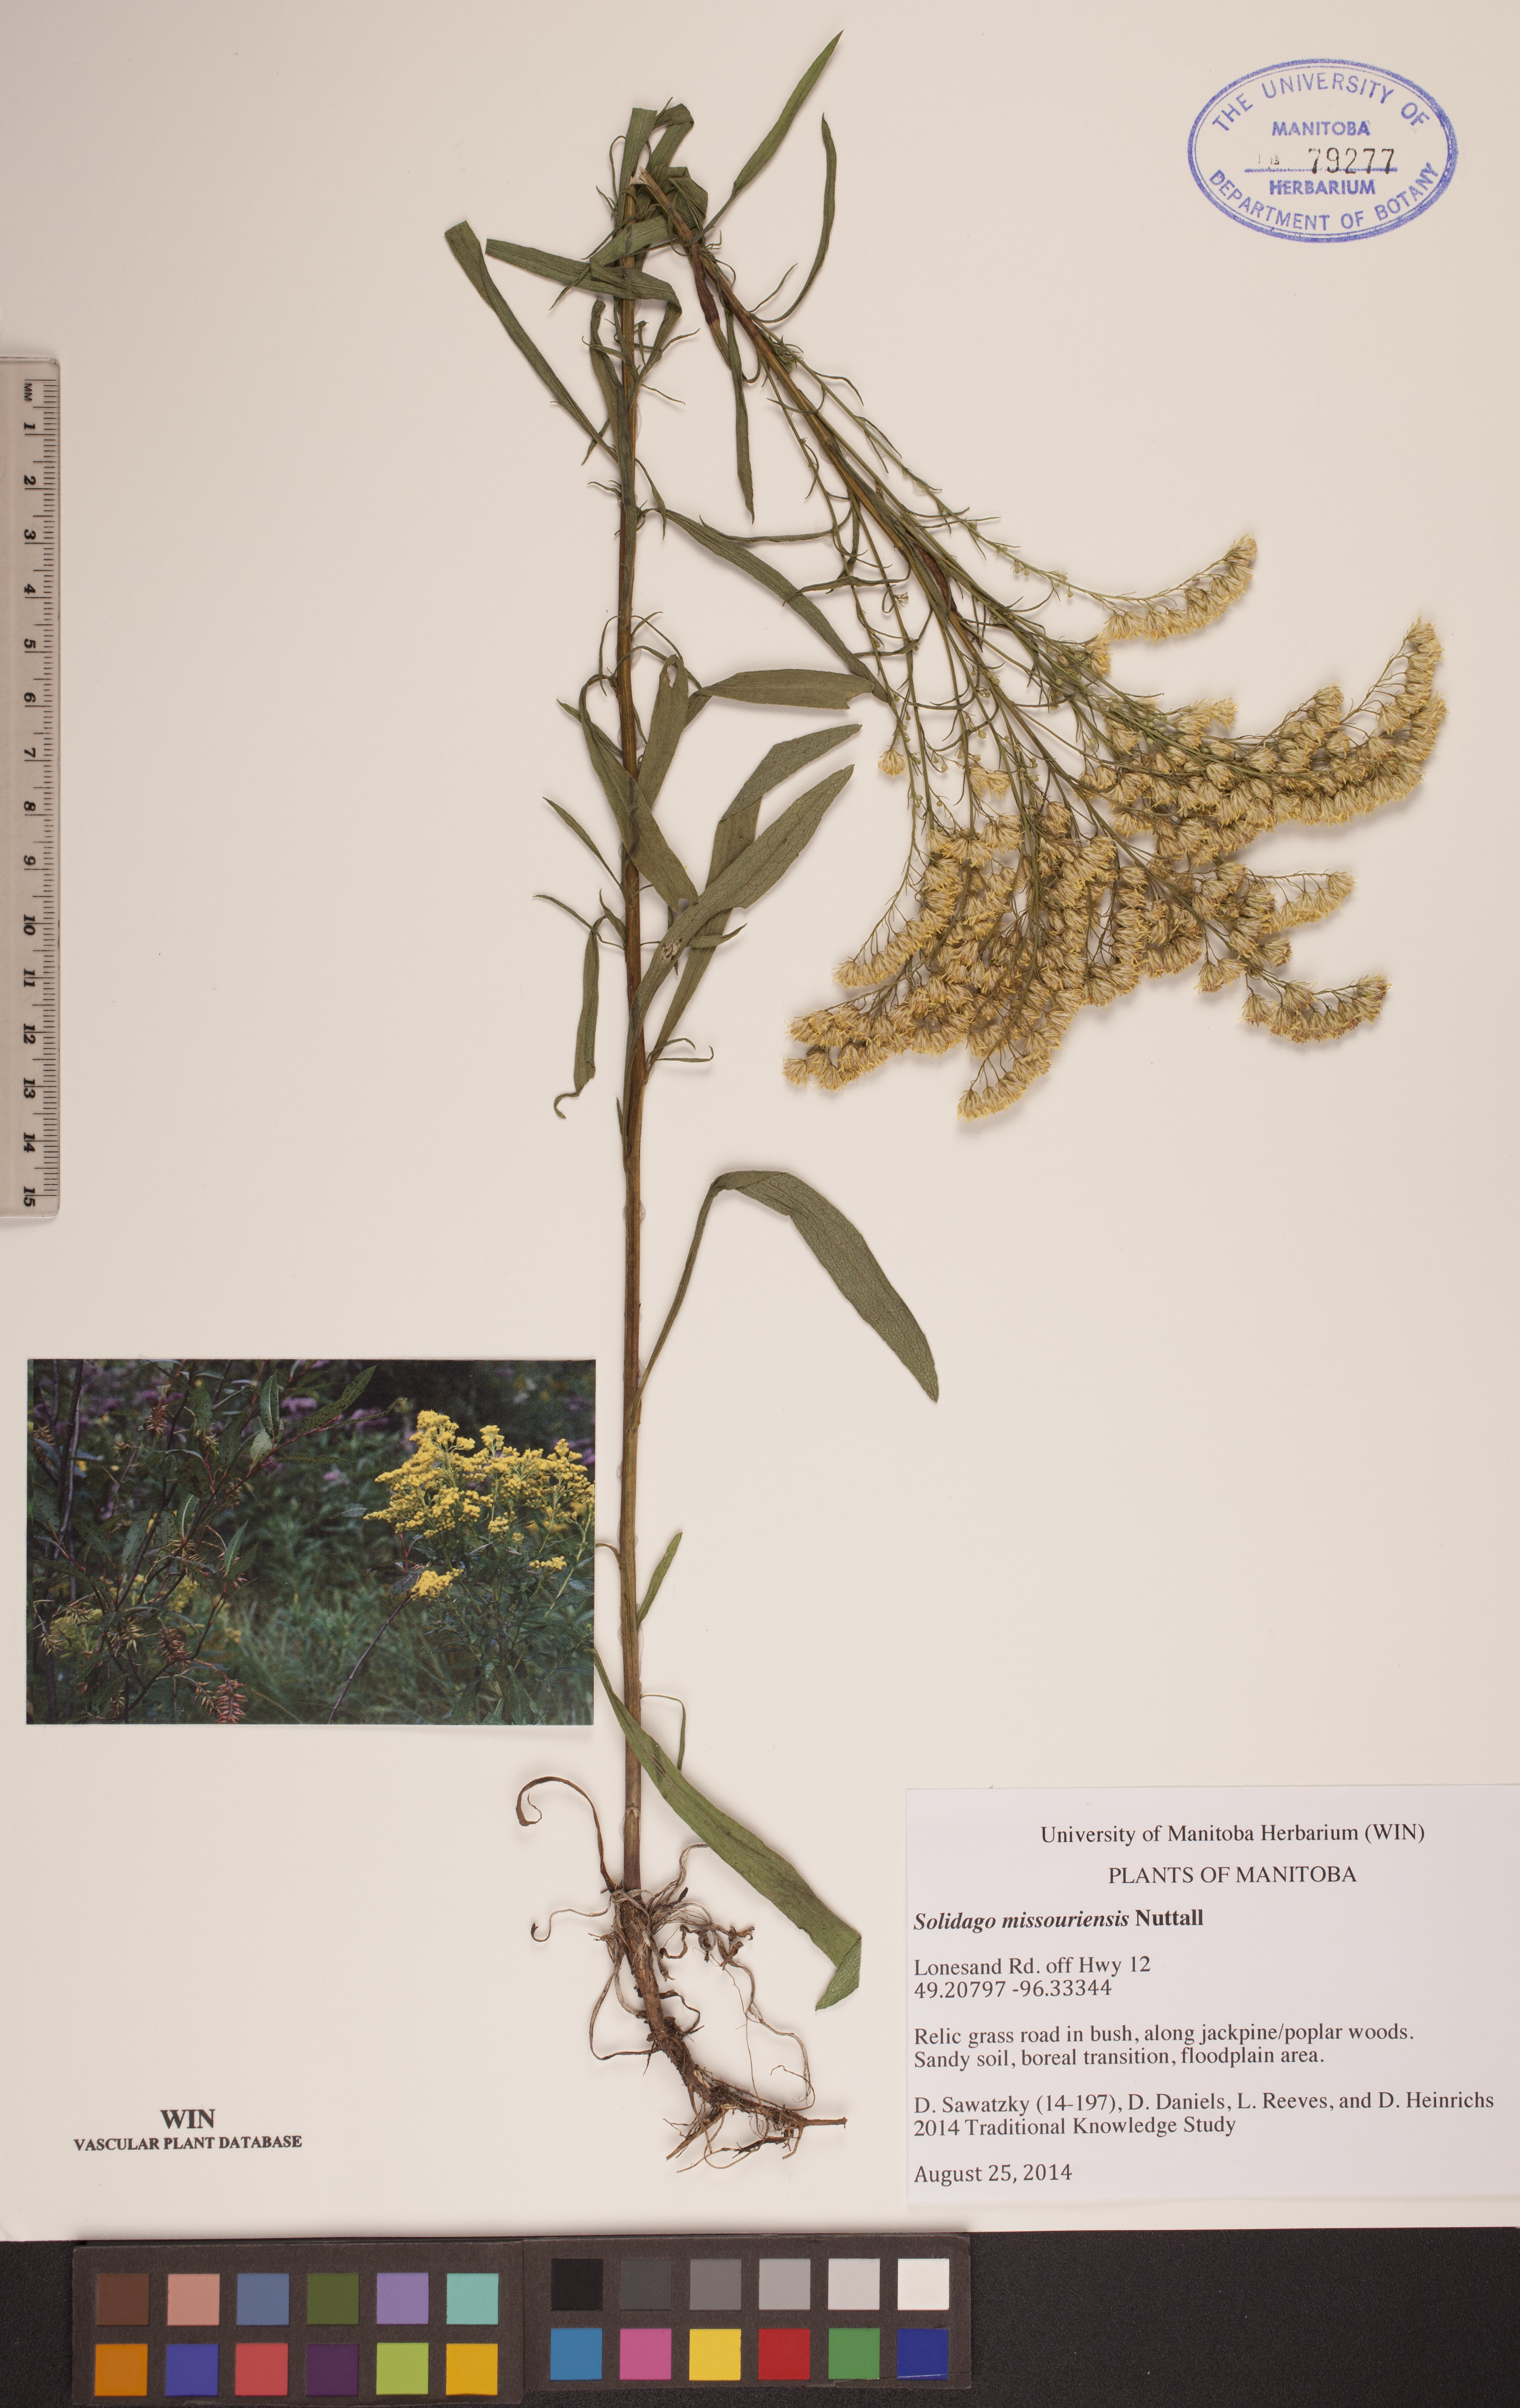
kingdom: Plantae
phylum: Tracheophyta
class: Magnoliopsida
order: Asterales
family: Asteraceae
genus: Solidago
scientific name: Solidago missouriensis
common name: Prairie goldenrod
